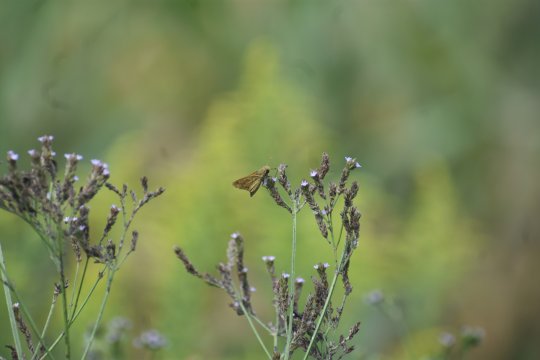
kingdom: Animalia
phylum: Arthropoda
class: Insecta
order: Lepidoptera
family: Hesperiidae
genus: Hylephila
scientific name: Hylephila phyleus
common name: Fiery Skipper
